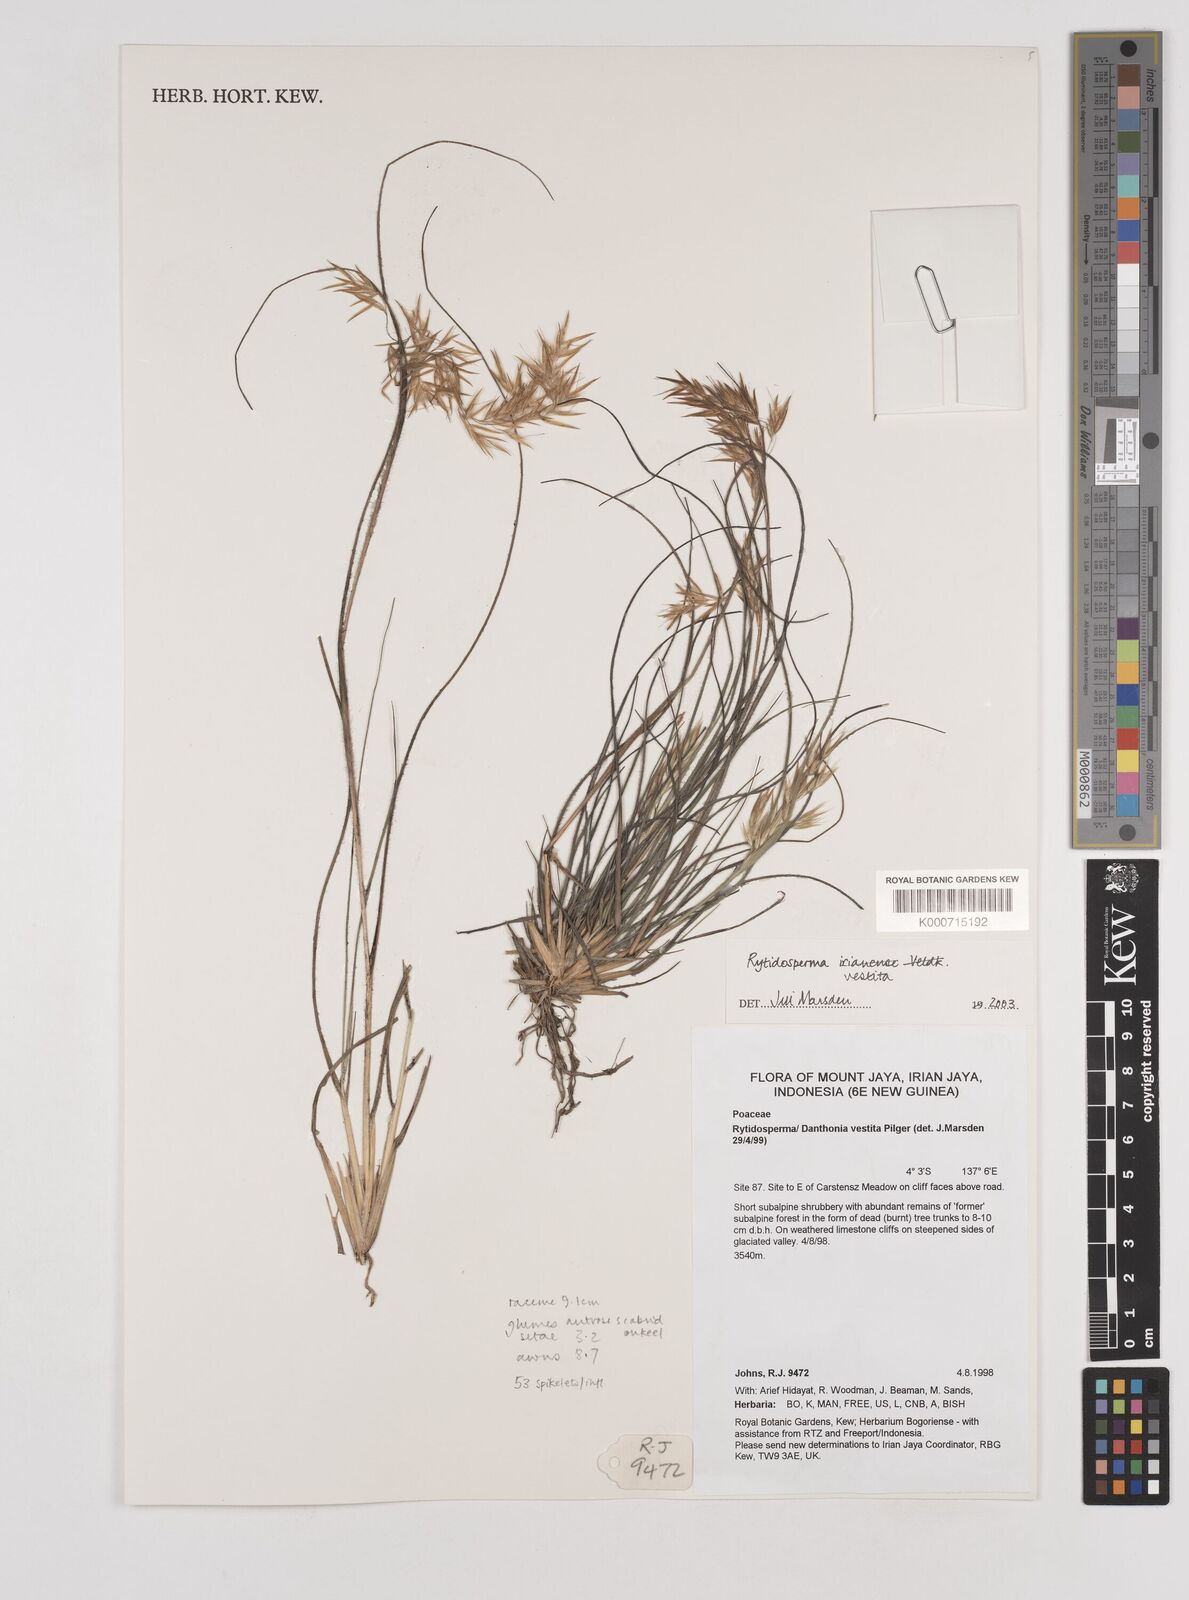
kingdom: Plantae
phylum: Tracheophyta
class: Liliopsida
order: Poales
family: Poaceae
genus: Rytidosperma
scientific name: Rytidosperma vestitum
